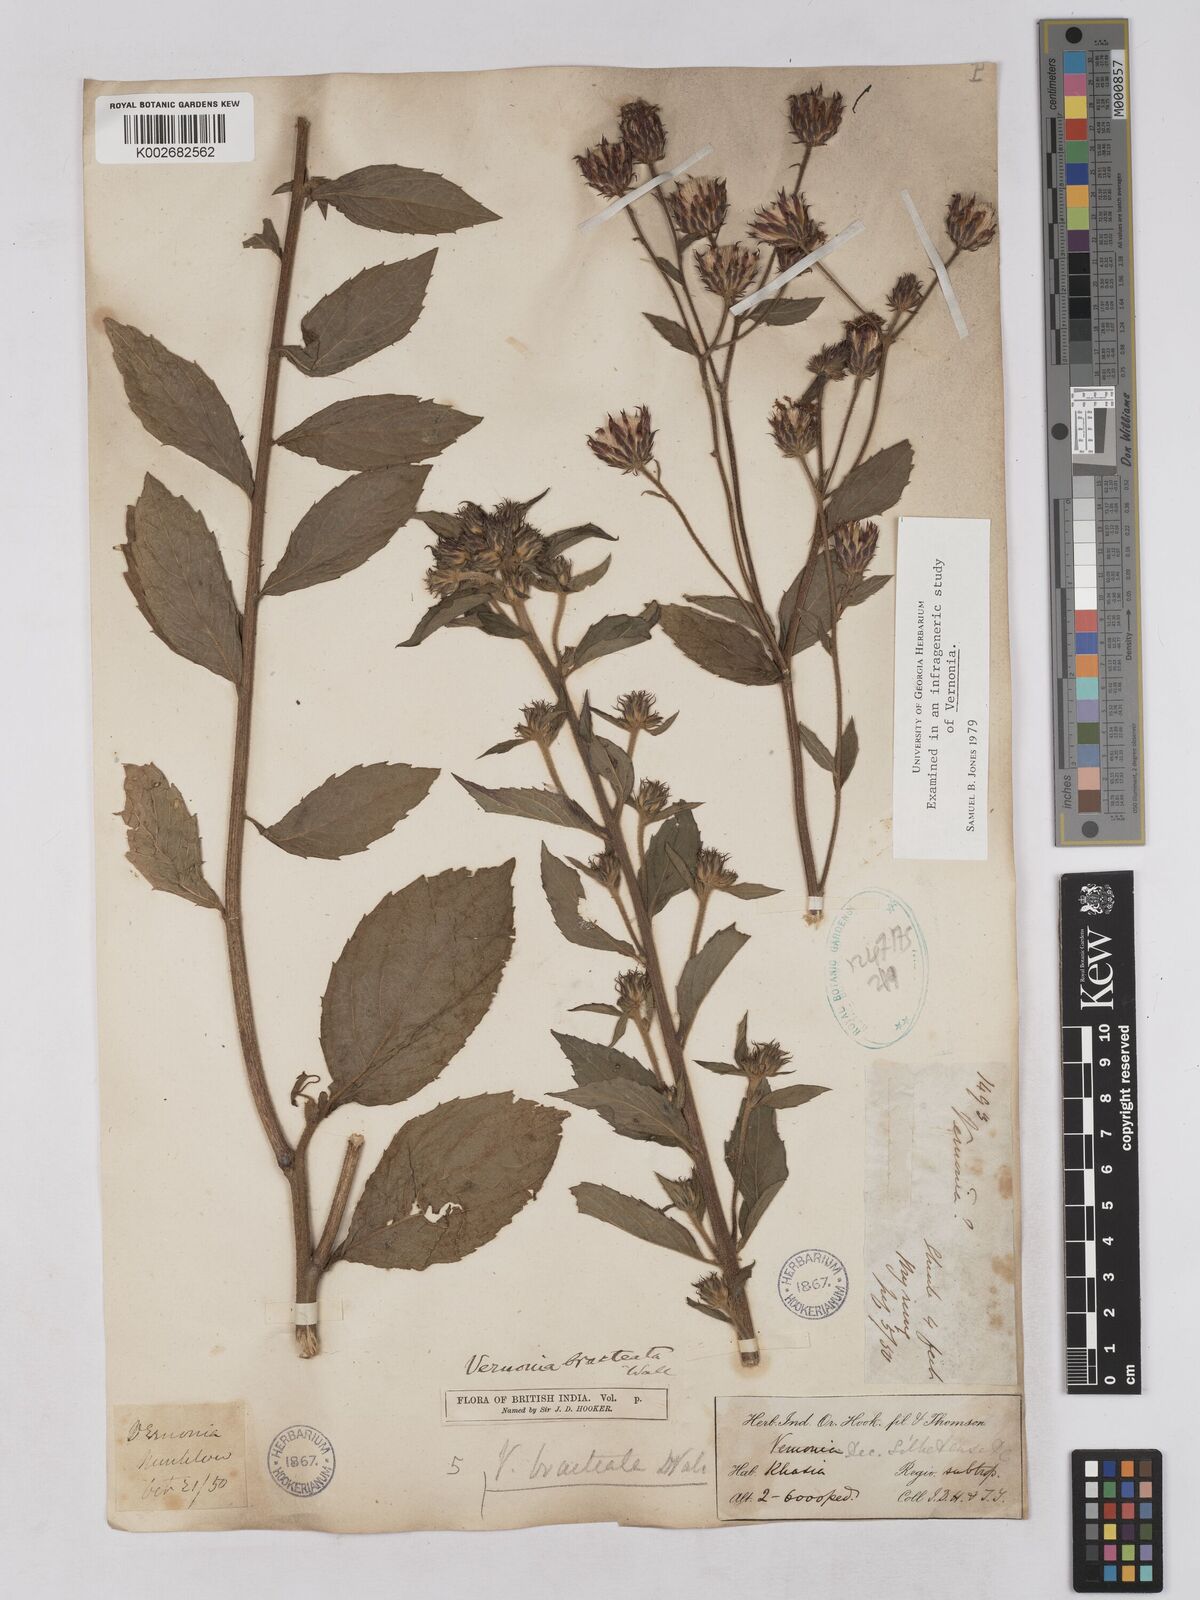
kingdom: Plantae
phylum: Tracheophyta
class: Magnoliopsida
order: Asterales
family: Asteraceae
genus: Acilepis
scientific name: Acilepis silhetensis
